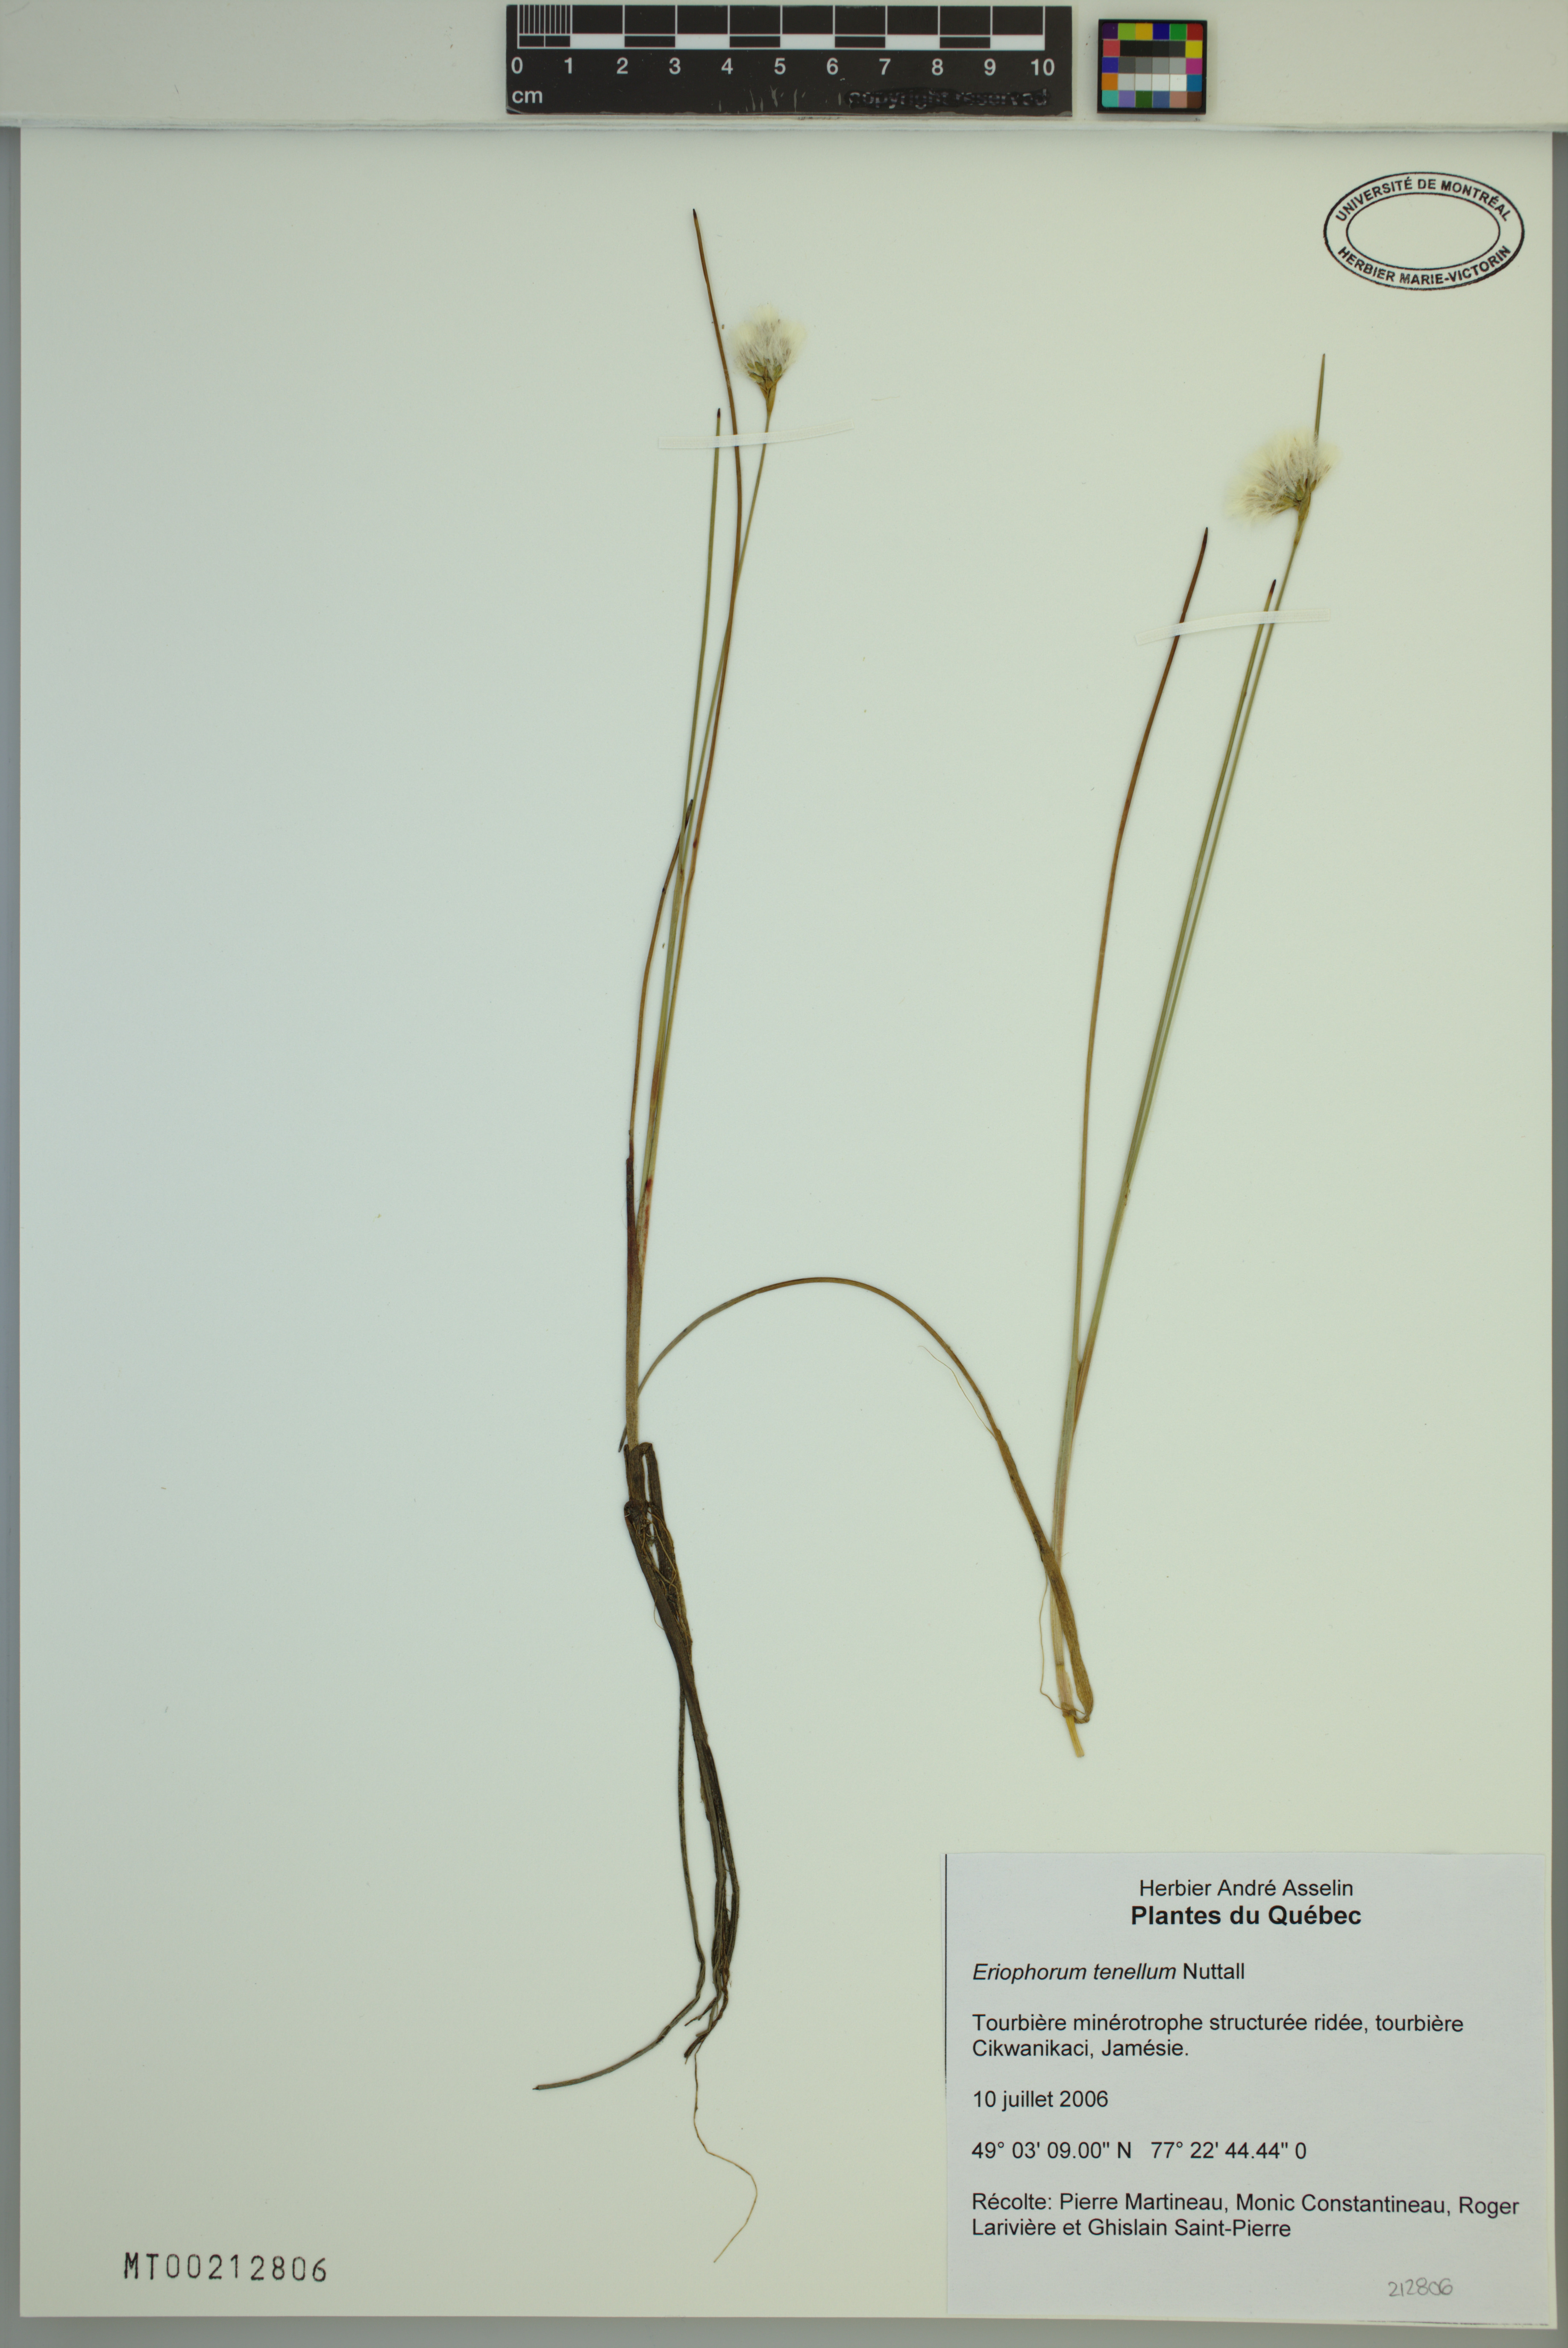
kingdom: Plantae
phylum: Tracheophyta
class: Liliopsida
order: Poales
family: Cyperaceae
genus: Eriophorum
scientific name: Eriophorum tenellum
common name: Few-nerved cottongrass
